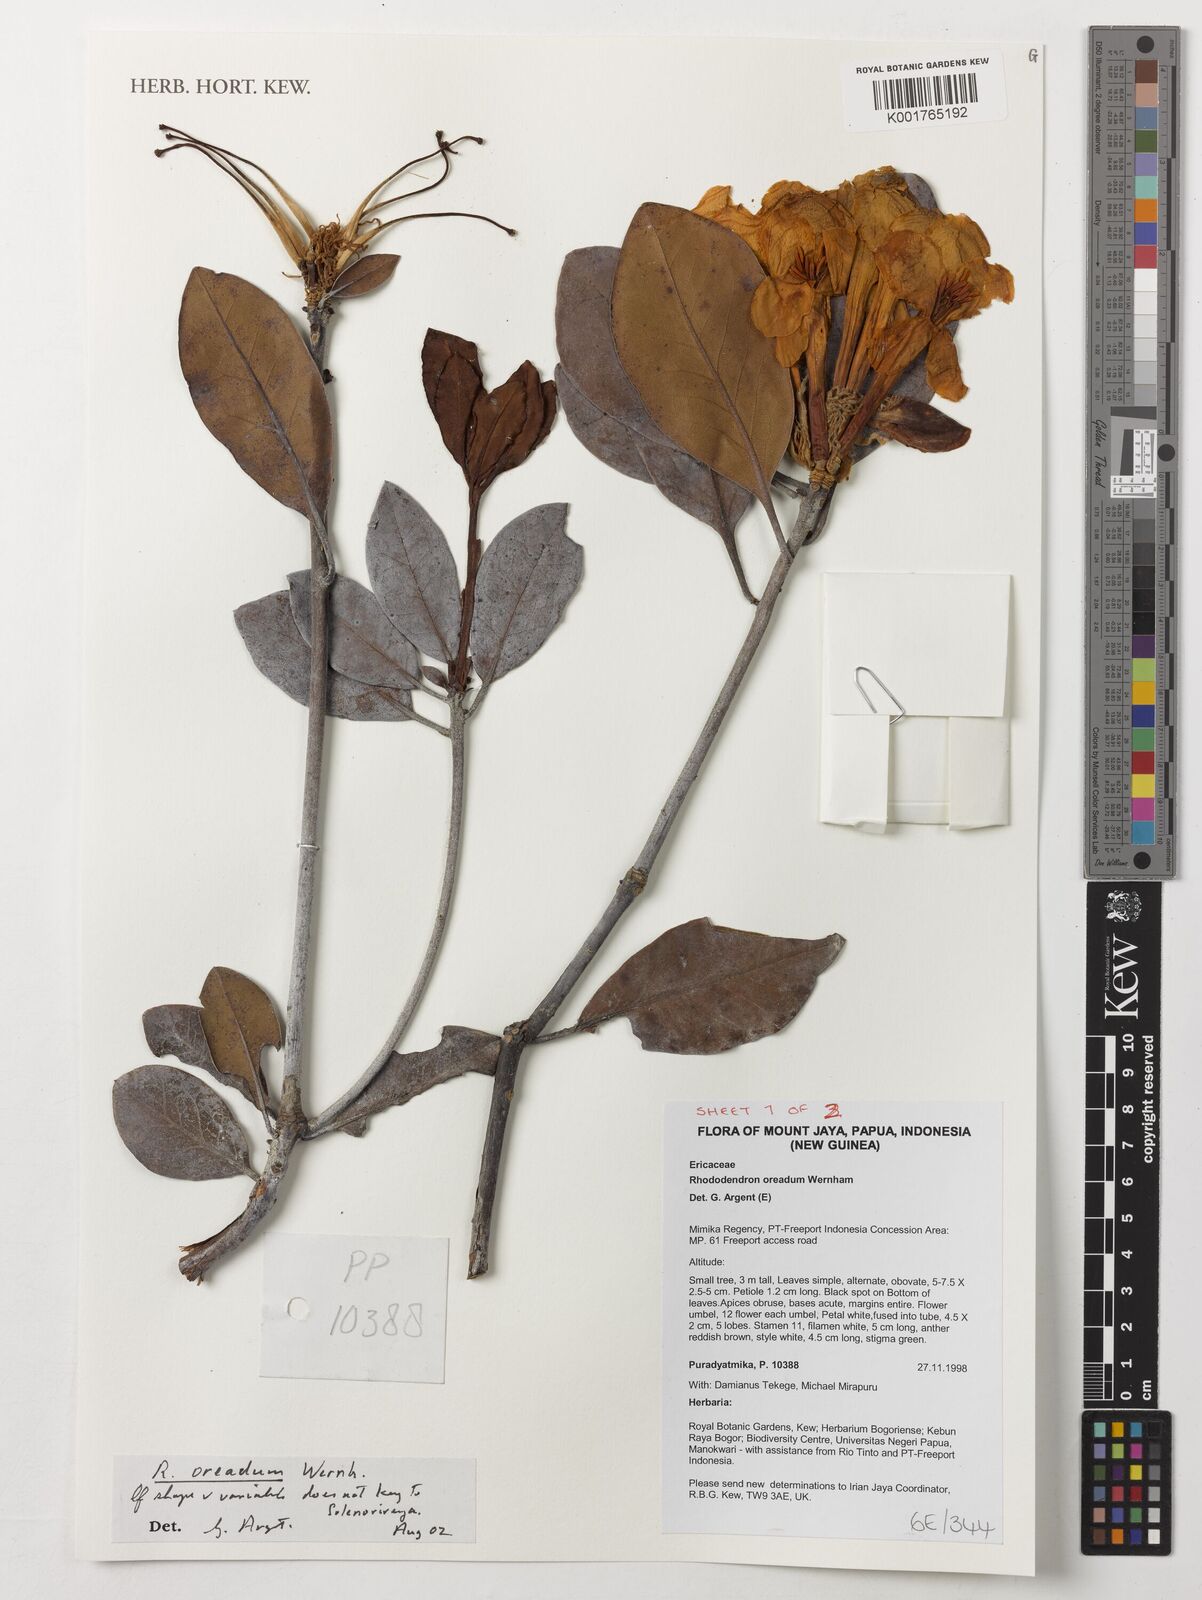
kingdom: Plantae
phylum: Tracheophyta
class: Magnoliopsida
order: Ericales
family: Ericaceae
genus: Rhododendron
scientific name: Rhododendron oreadum
